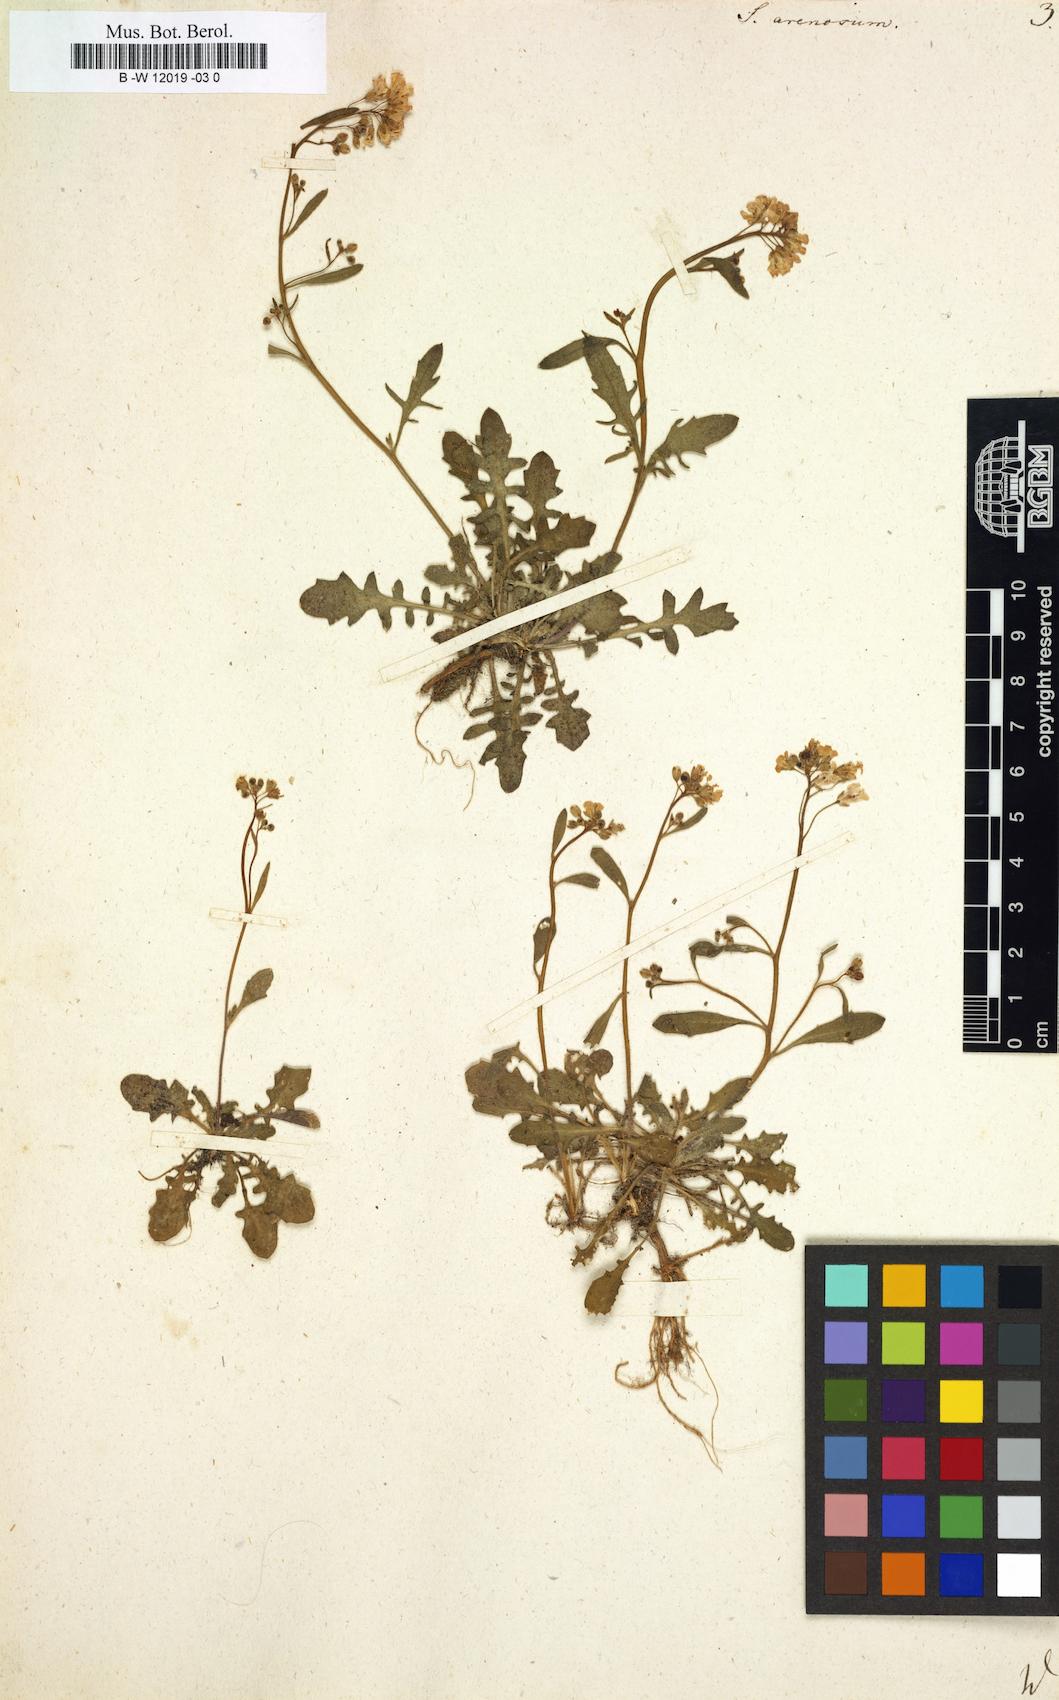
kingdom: Plantae
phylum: Tracheophyta
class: Magnoliopsida
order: Brassicales
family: Brassicaceae
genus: Arabidopsis
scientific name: Arabidopsis
